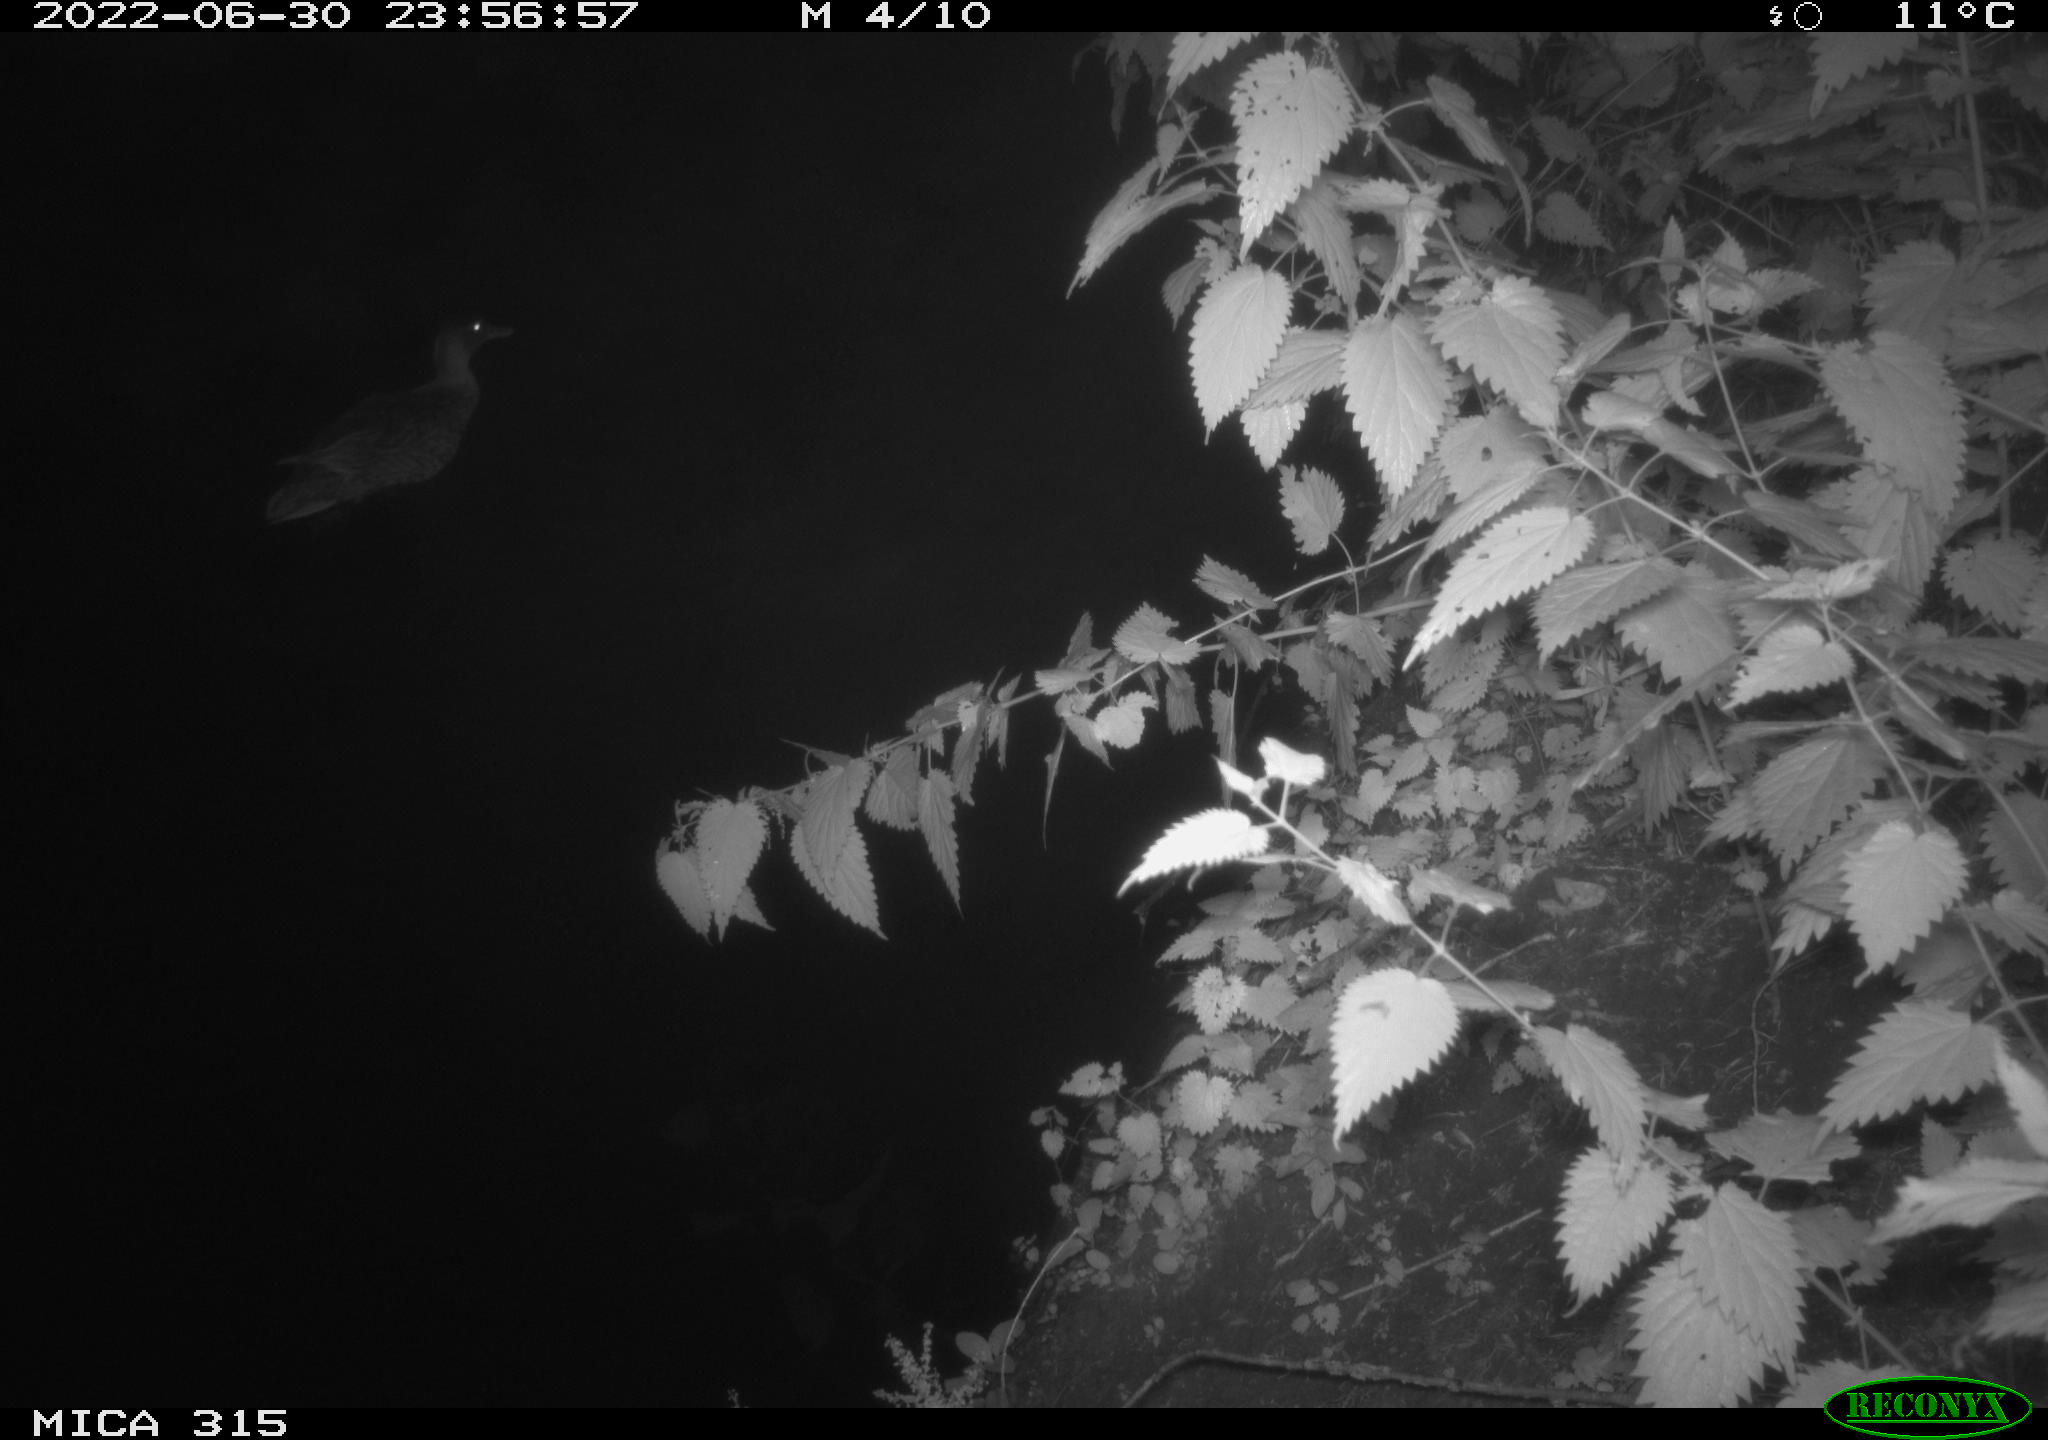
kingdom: Animalia
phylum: Chordata
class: Aves
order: Anseriformes
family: Anatidae
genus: Anas
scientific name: Anas platyrhynchos
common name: Mallard
